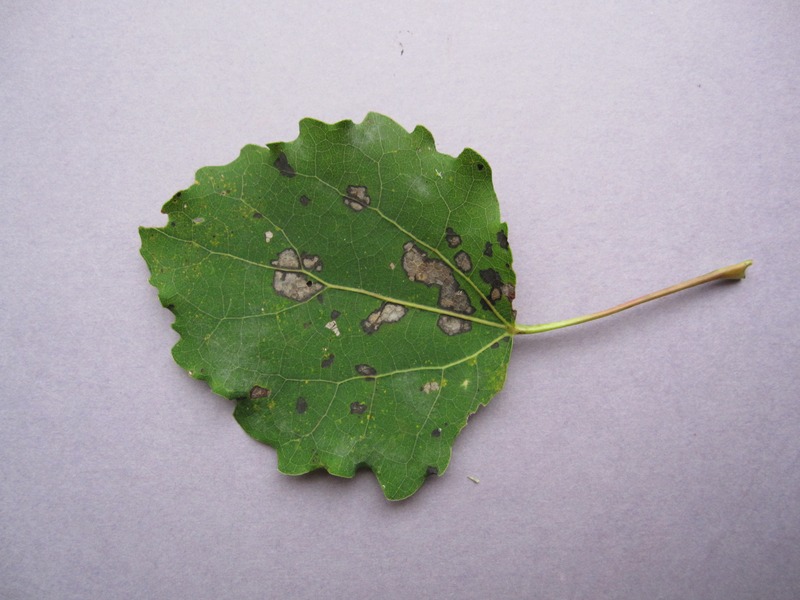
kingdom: Fungi
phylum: Basidiomycota
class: Pucciniomycetes
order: Pucciniales
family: Melampsoraceae
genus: Melampsora
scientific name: Melampsora populnea
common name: Dog's mercury rust
